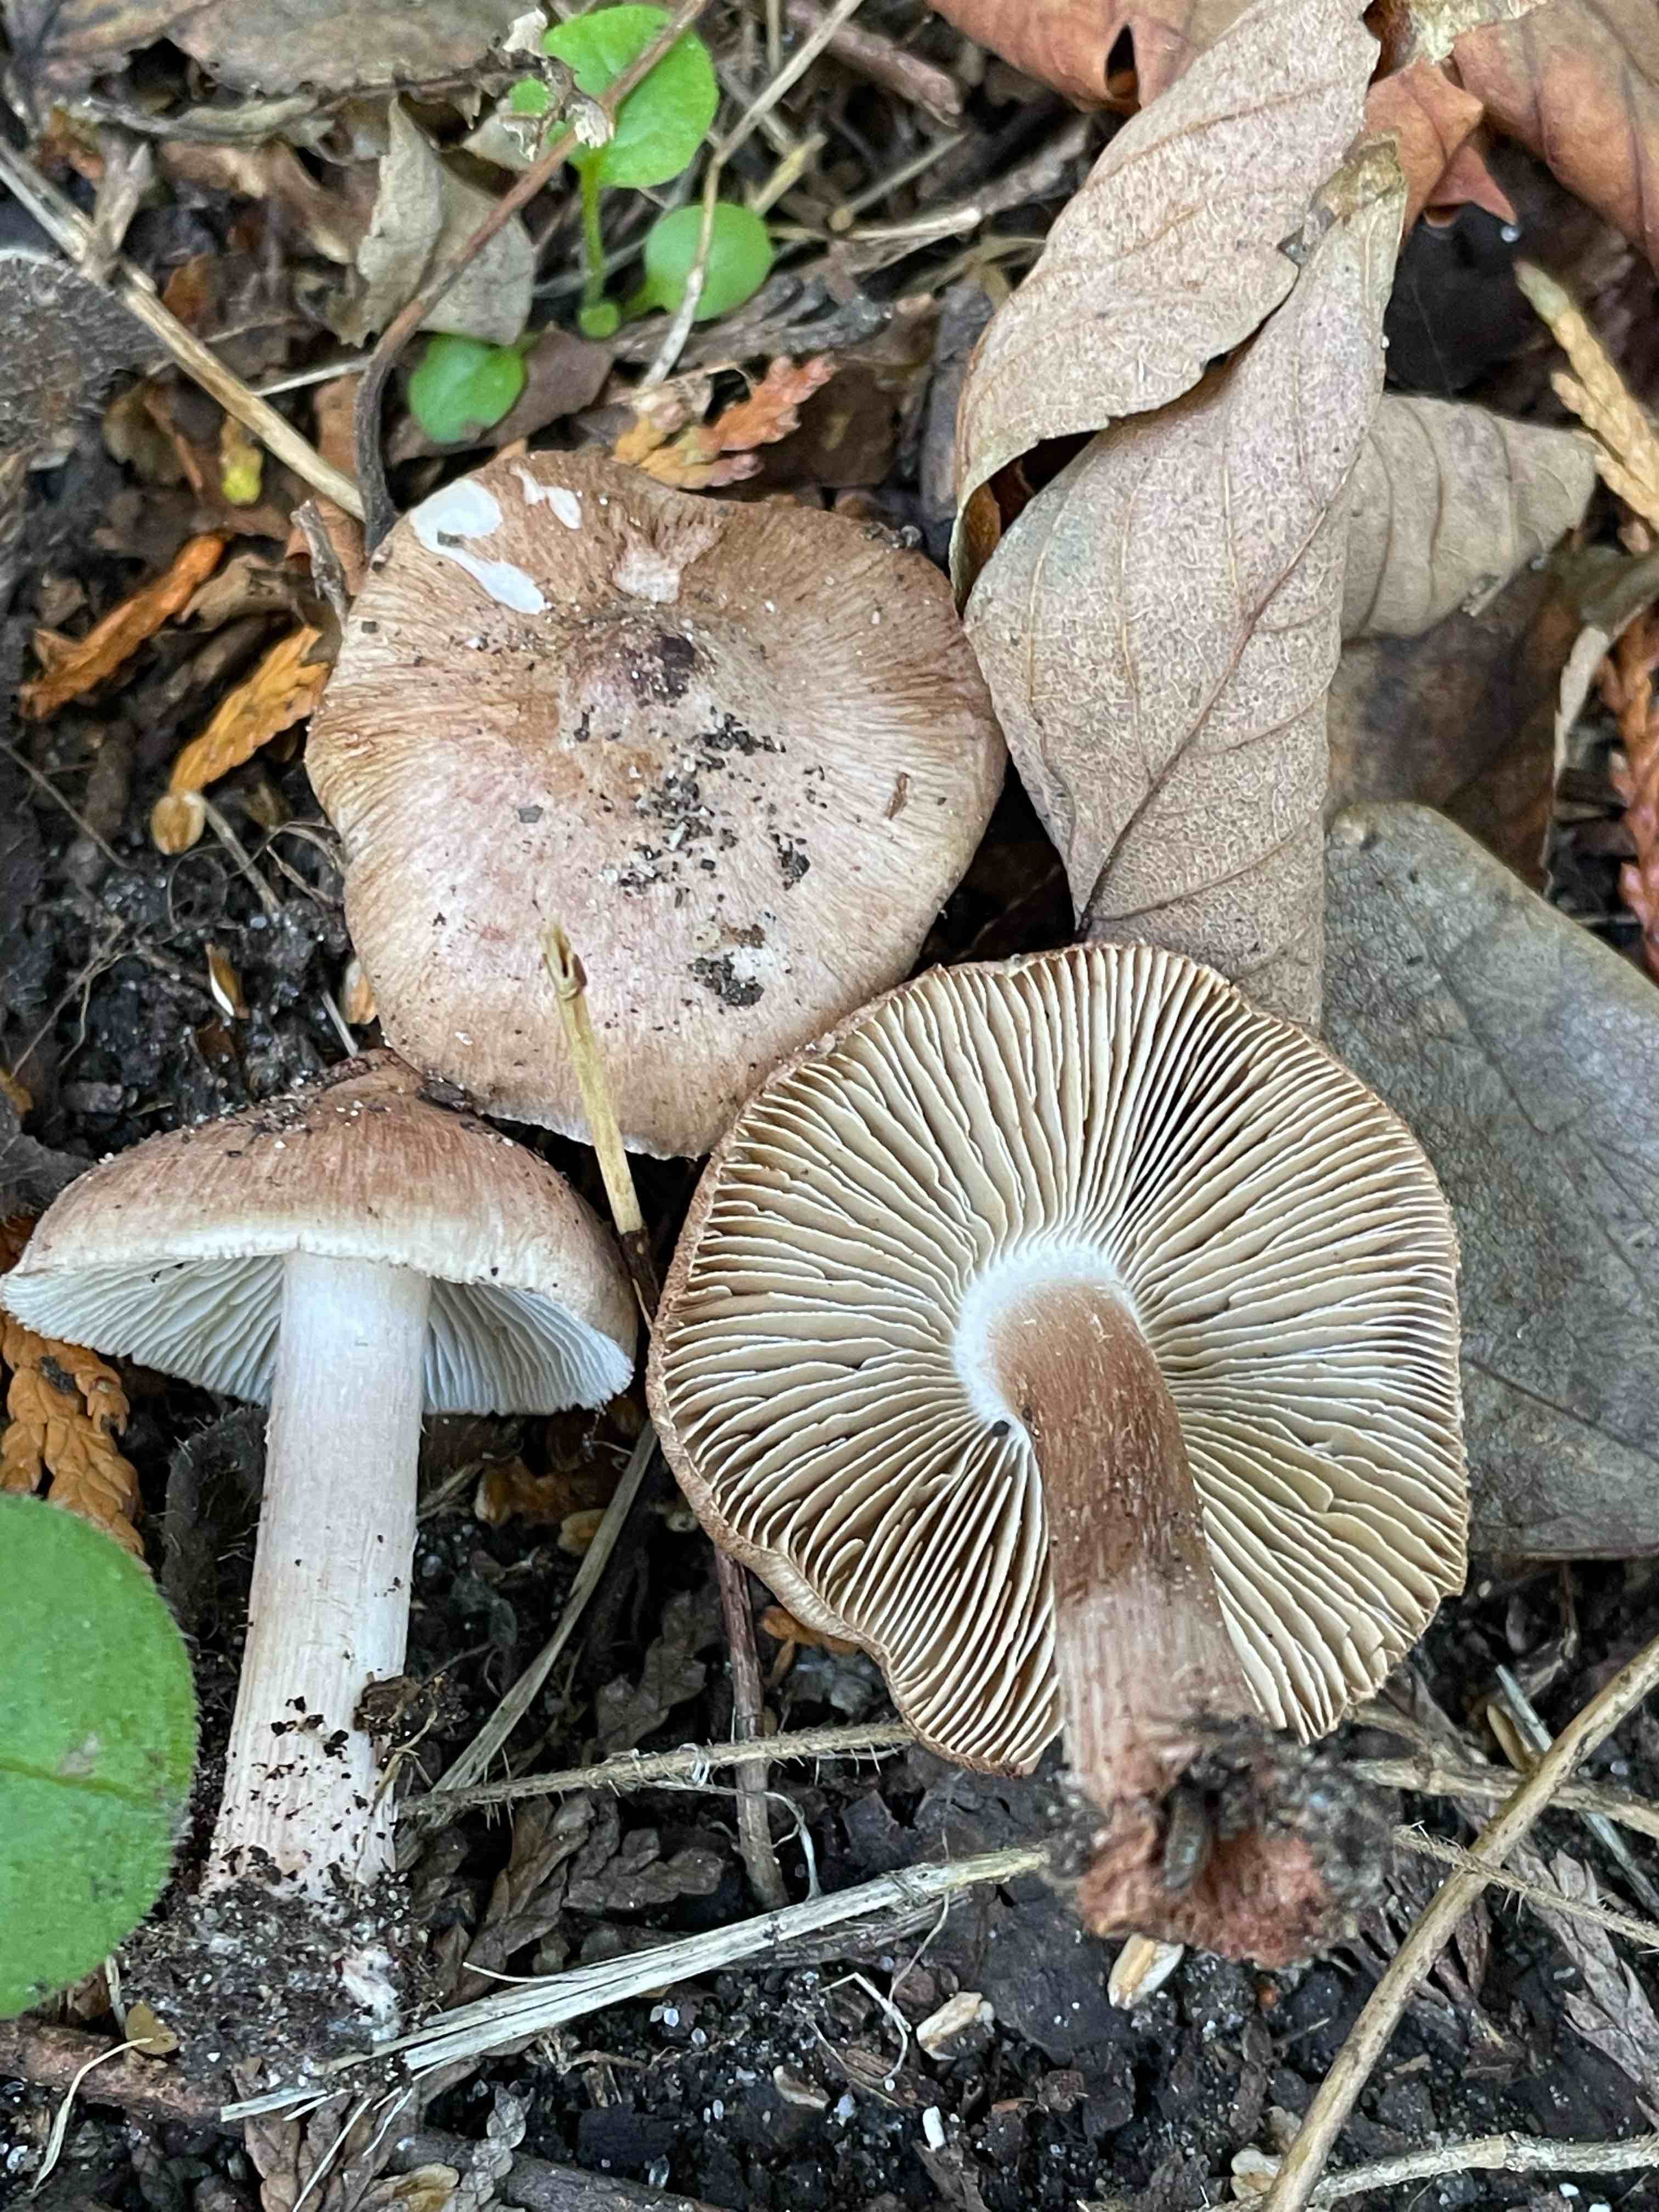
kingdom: Fungi
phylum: Basidiomycota
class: Agaricomycetes
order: Agaricales
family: Inocybaceae
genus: Inocybe
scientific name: Inocybe
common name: trævlhat
